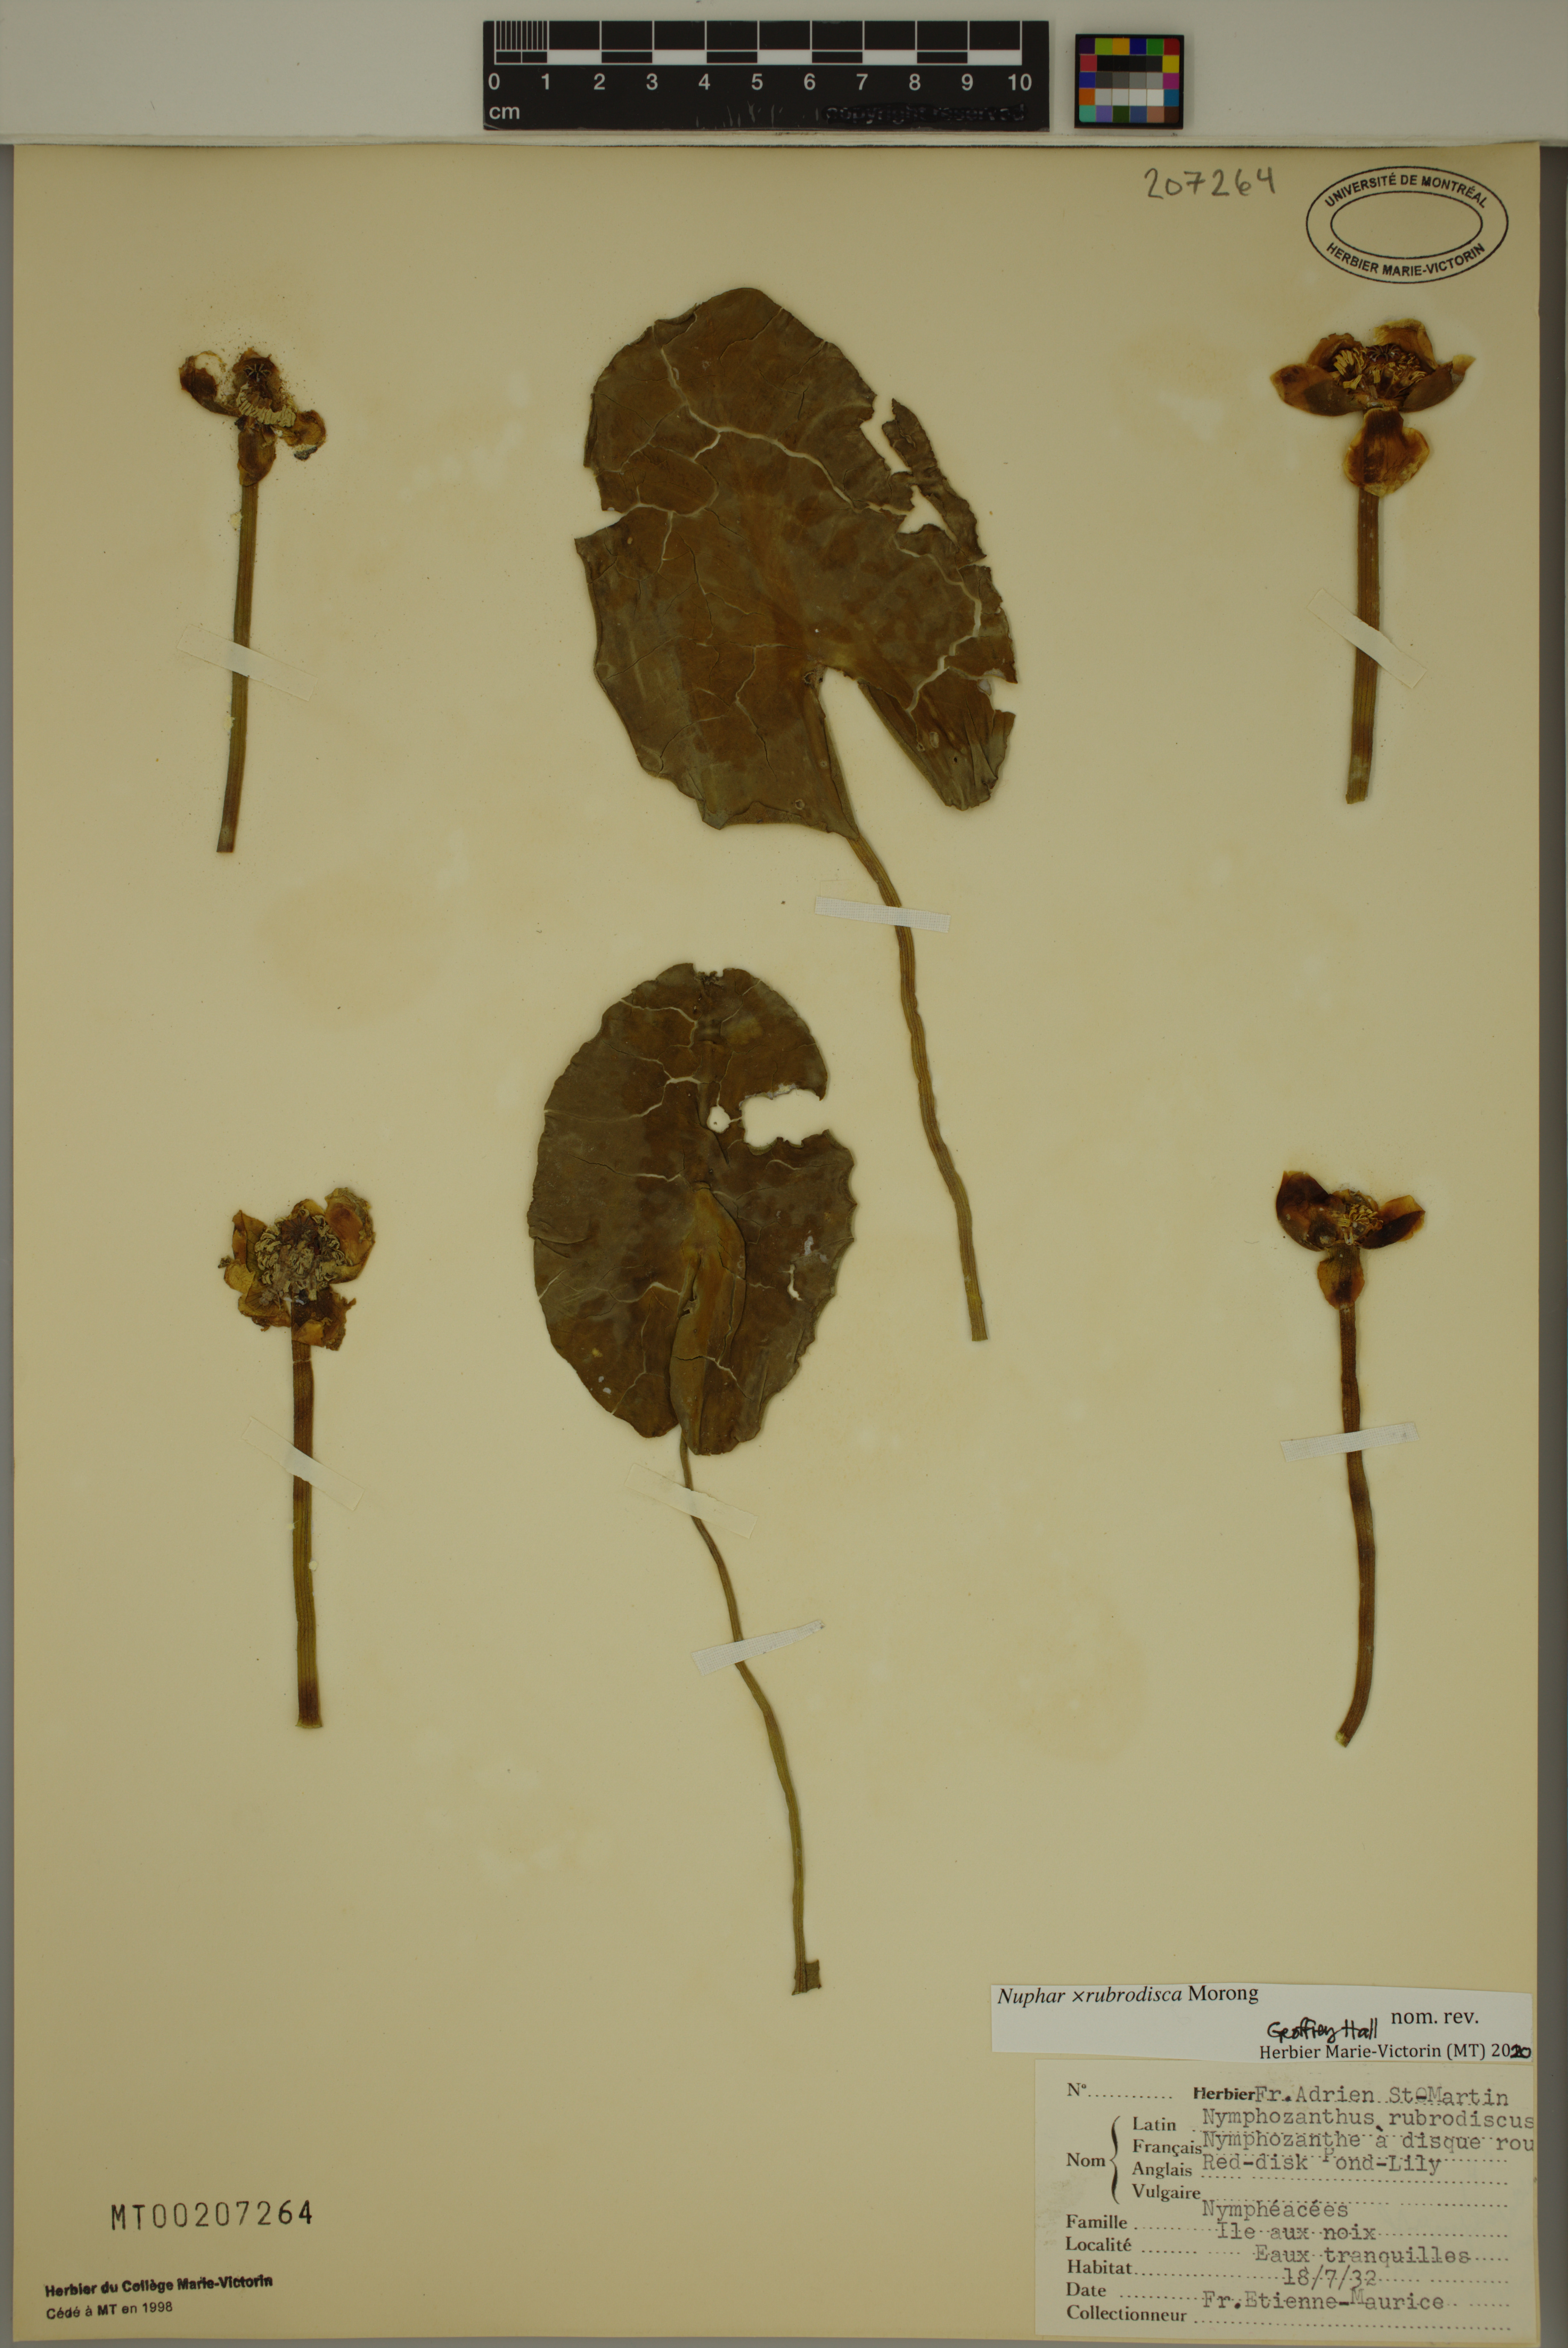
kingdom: Plantae
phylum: Tracheophyta
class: Magnoliopsida
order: Nymphaeales
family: Nymphaeaceae
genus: Nuphar
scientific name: Nuphar rubrodisca
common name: Yellow pond-lily
